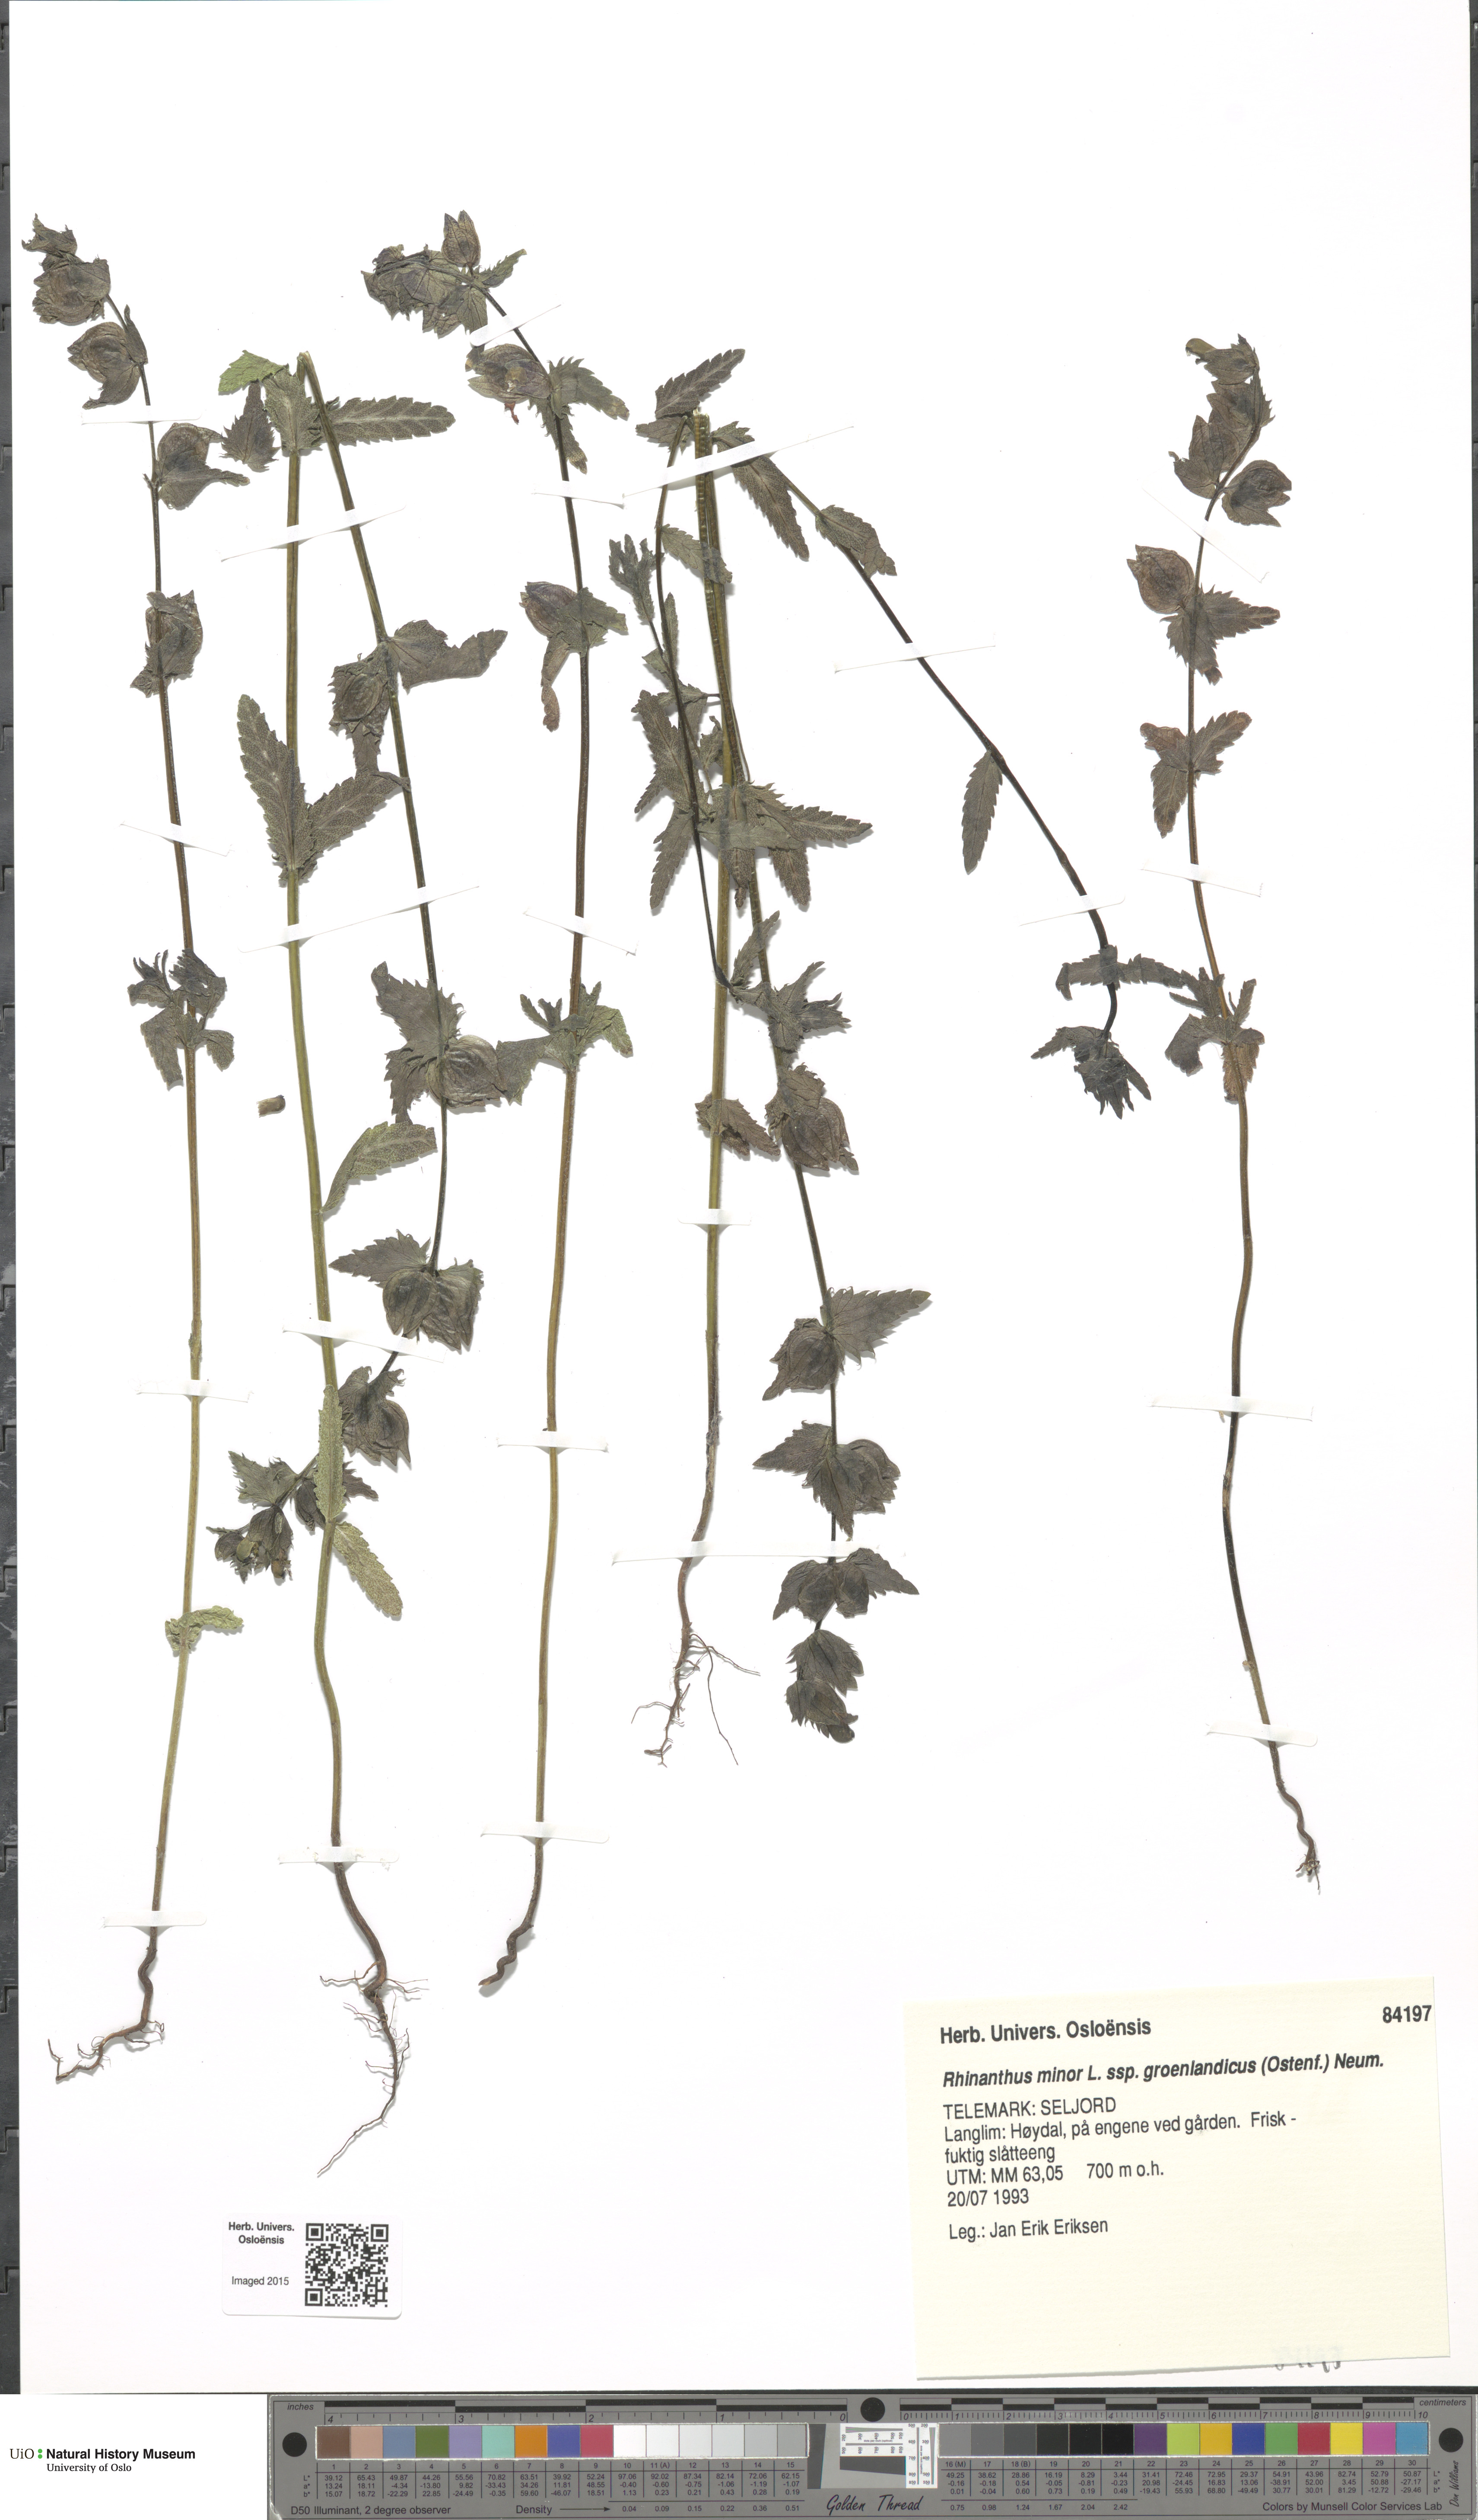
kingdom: Plantae
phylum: Tracheophyta
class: Magnoliopsida
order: Lamiales
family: Orobanchaceae
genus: Rhinanthus
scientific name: Rhinanthus groenlandicus
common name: Little yellow rattle
